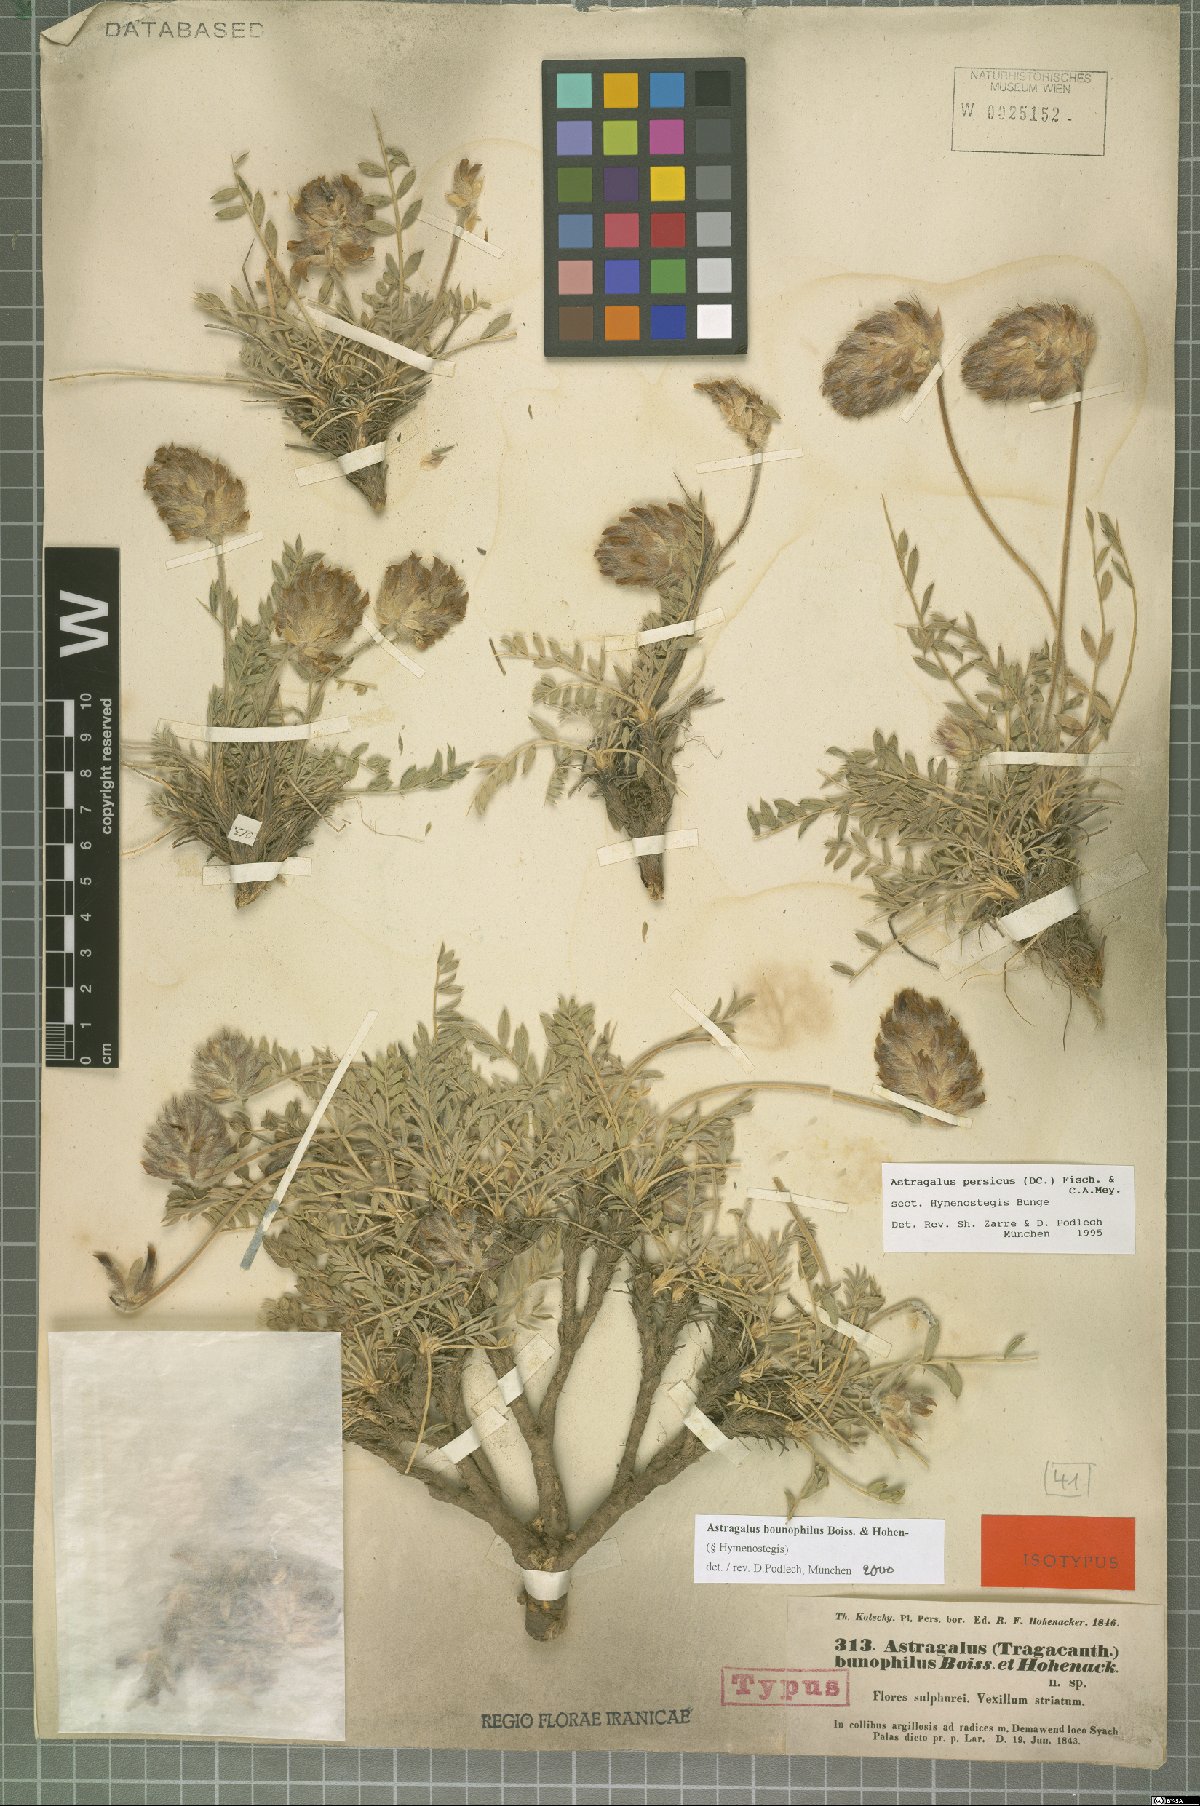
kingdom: Plantae
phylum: Tracheophyta
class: Magnoliopsida
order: Fabales
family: Fabaceae
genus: Astragalus
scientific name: Astragalus bounophilus
